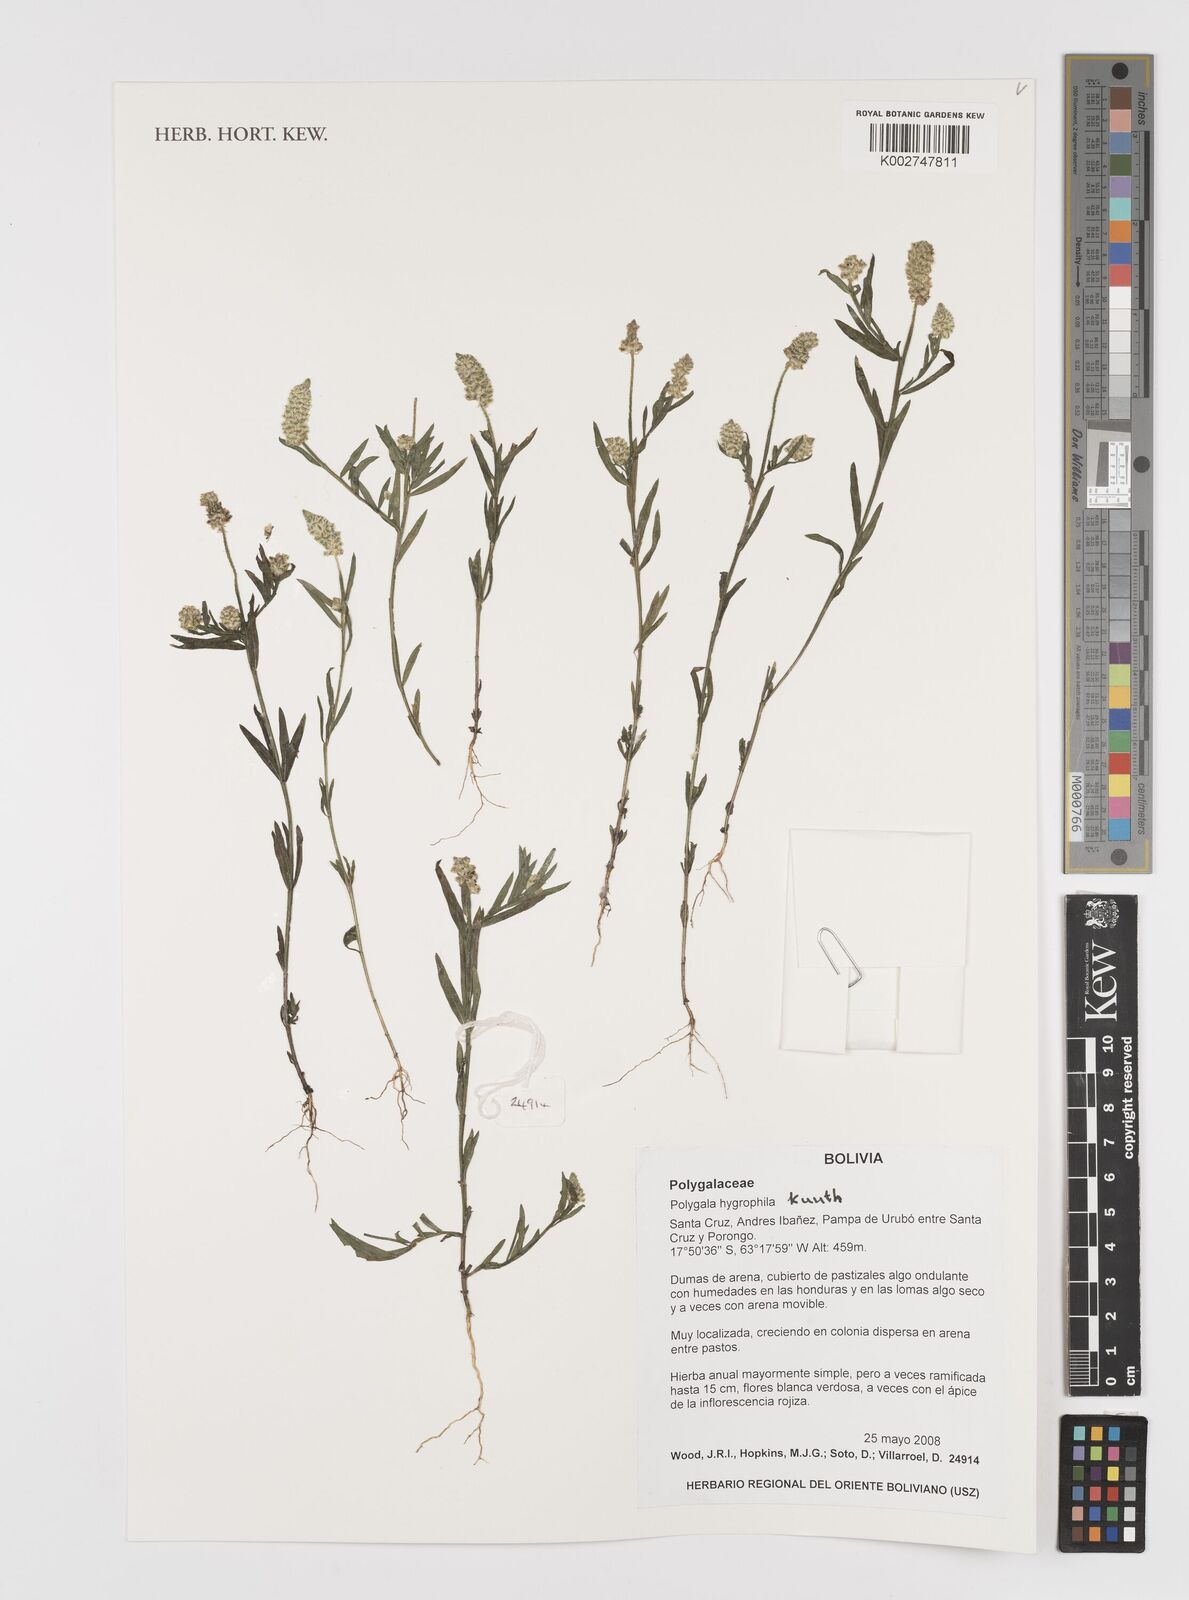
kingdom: Plantae
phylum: Tracheophyta
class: Magnoliopsida
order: Fabales
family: Polygalaceae
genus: Polygala
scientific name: Polygala hygrophila
